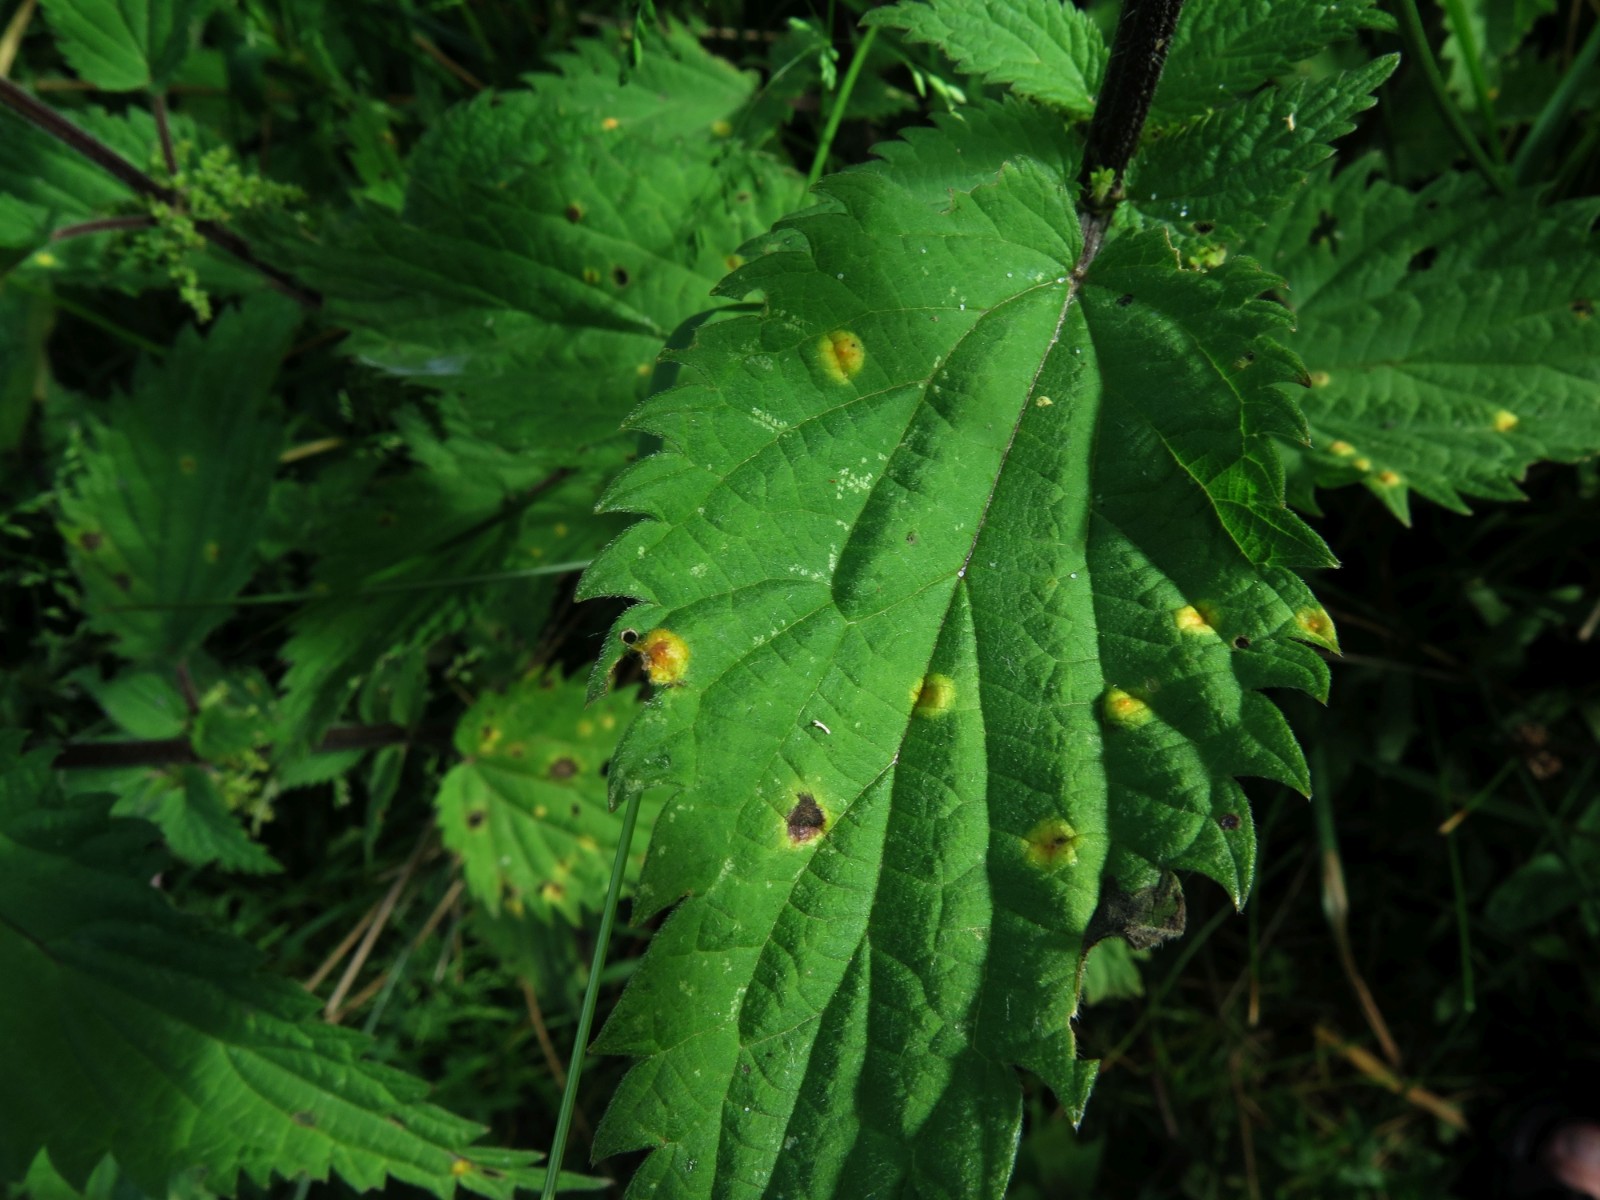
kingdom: Fungi
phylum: Basidiomycota
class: Pucciniomycetes
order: Pucciniales
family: Pucciniaceae
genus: Puccinia
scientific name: Puccinia urticata
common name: nældegalle-tvecellerust
